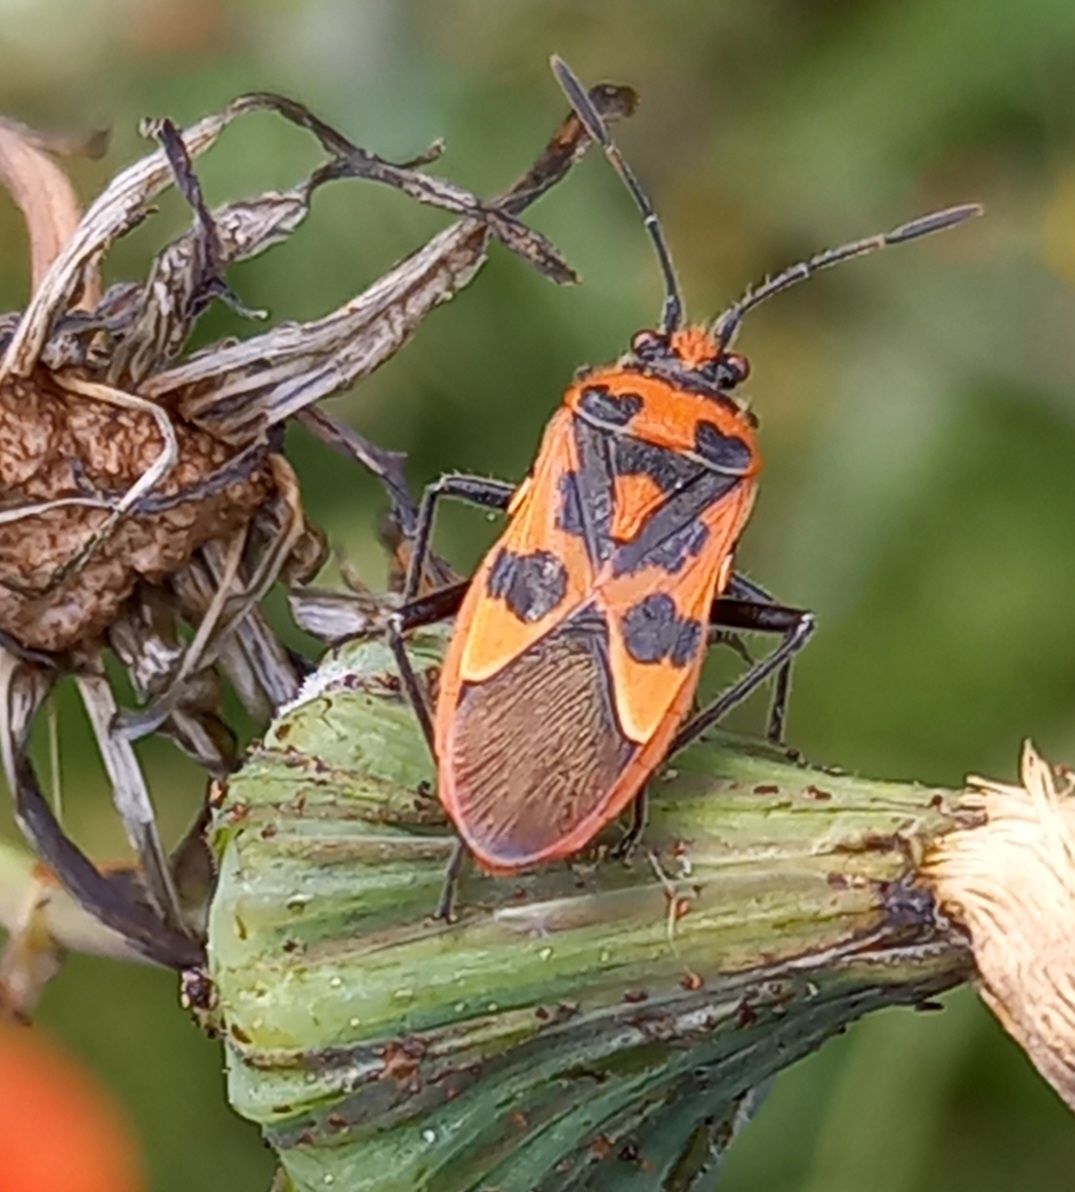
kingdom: Animalia
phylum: Arthropoda
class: Insecta
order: Hemiptera
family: Rhopalidae
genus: Corizus
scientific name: Corizus hyoscyami
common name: Rød kanttæge
